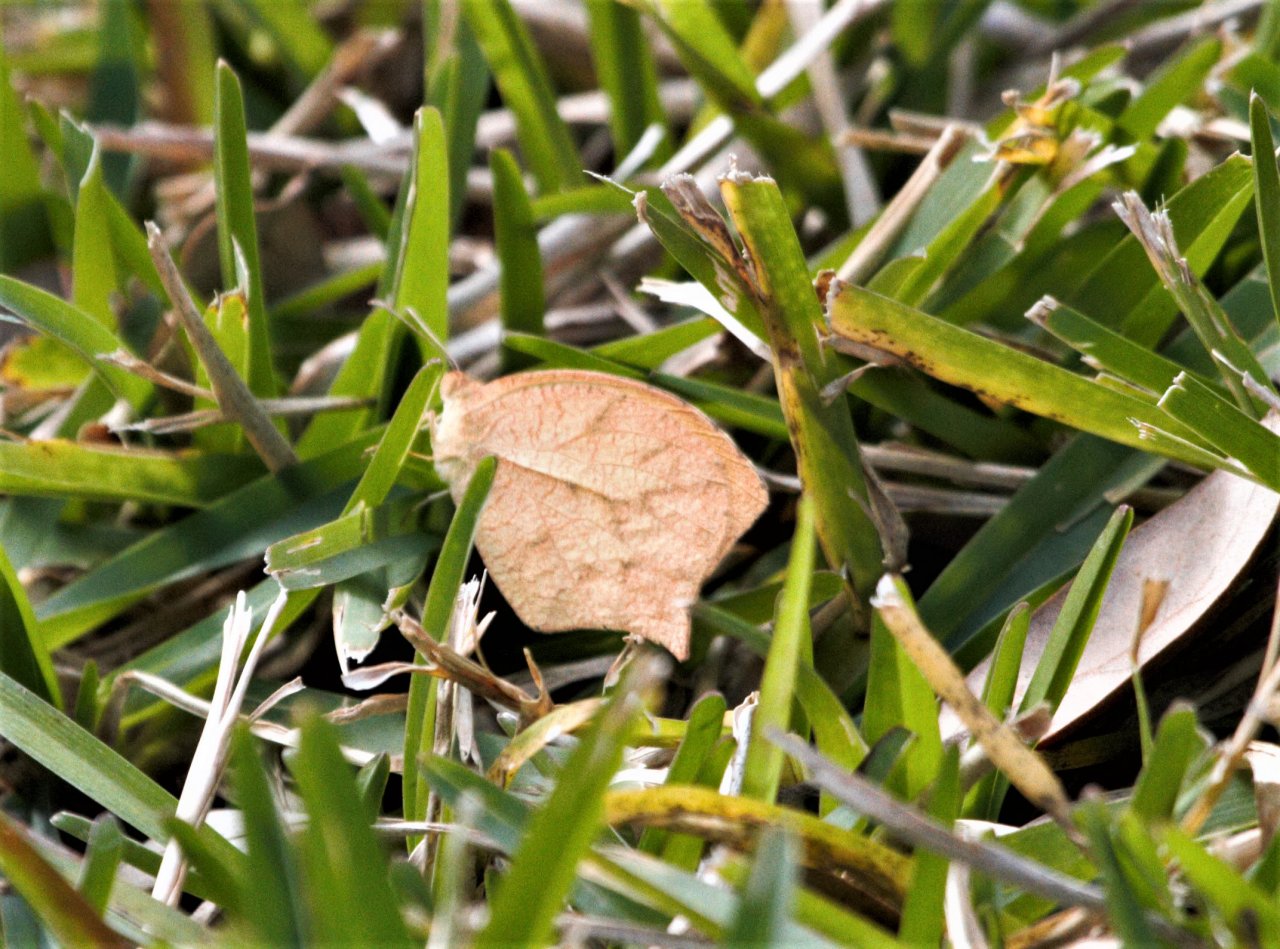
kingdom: Animalia
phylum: Arthropoda
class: Insecta
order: Lepidoptera
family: Pieridae
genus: Pyrisitia
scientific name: Pyrisitia proterpia
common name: Tailed Orange
